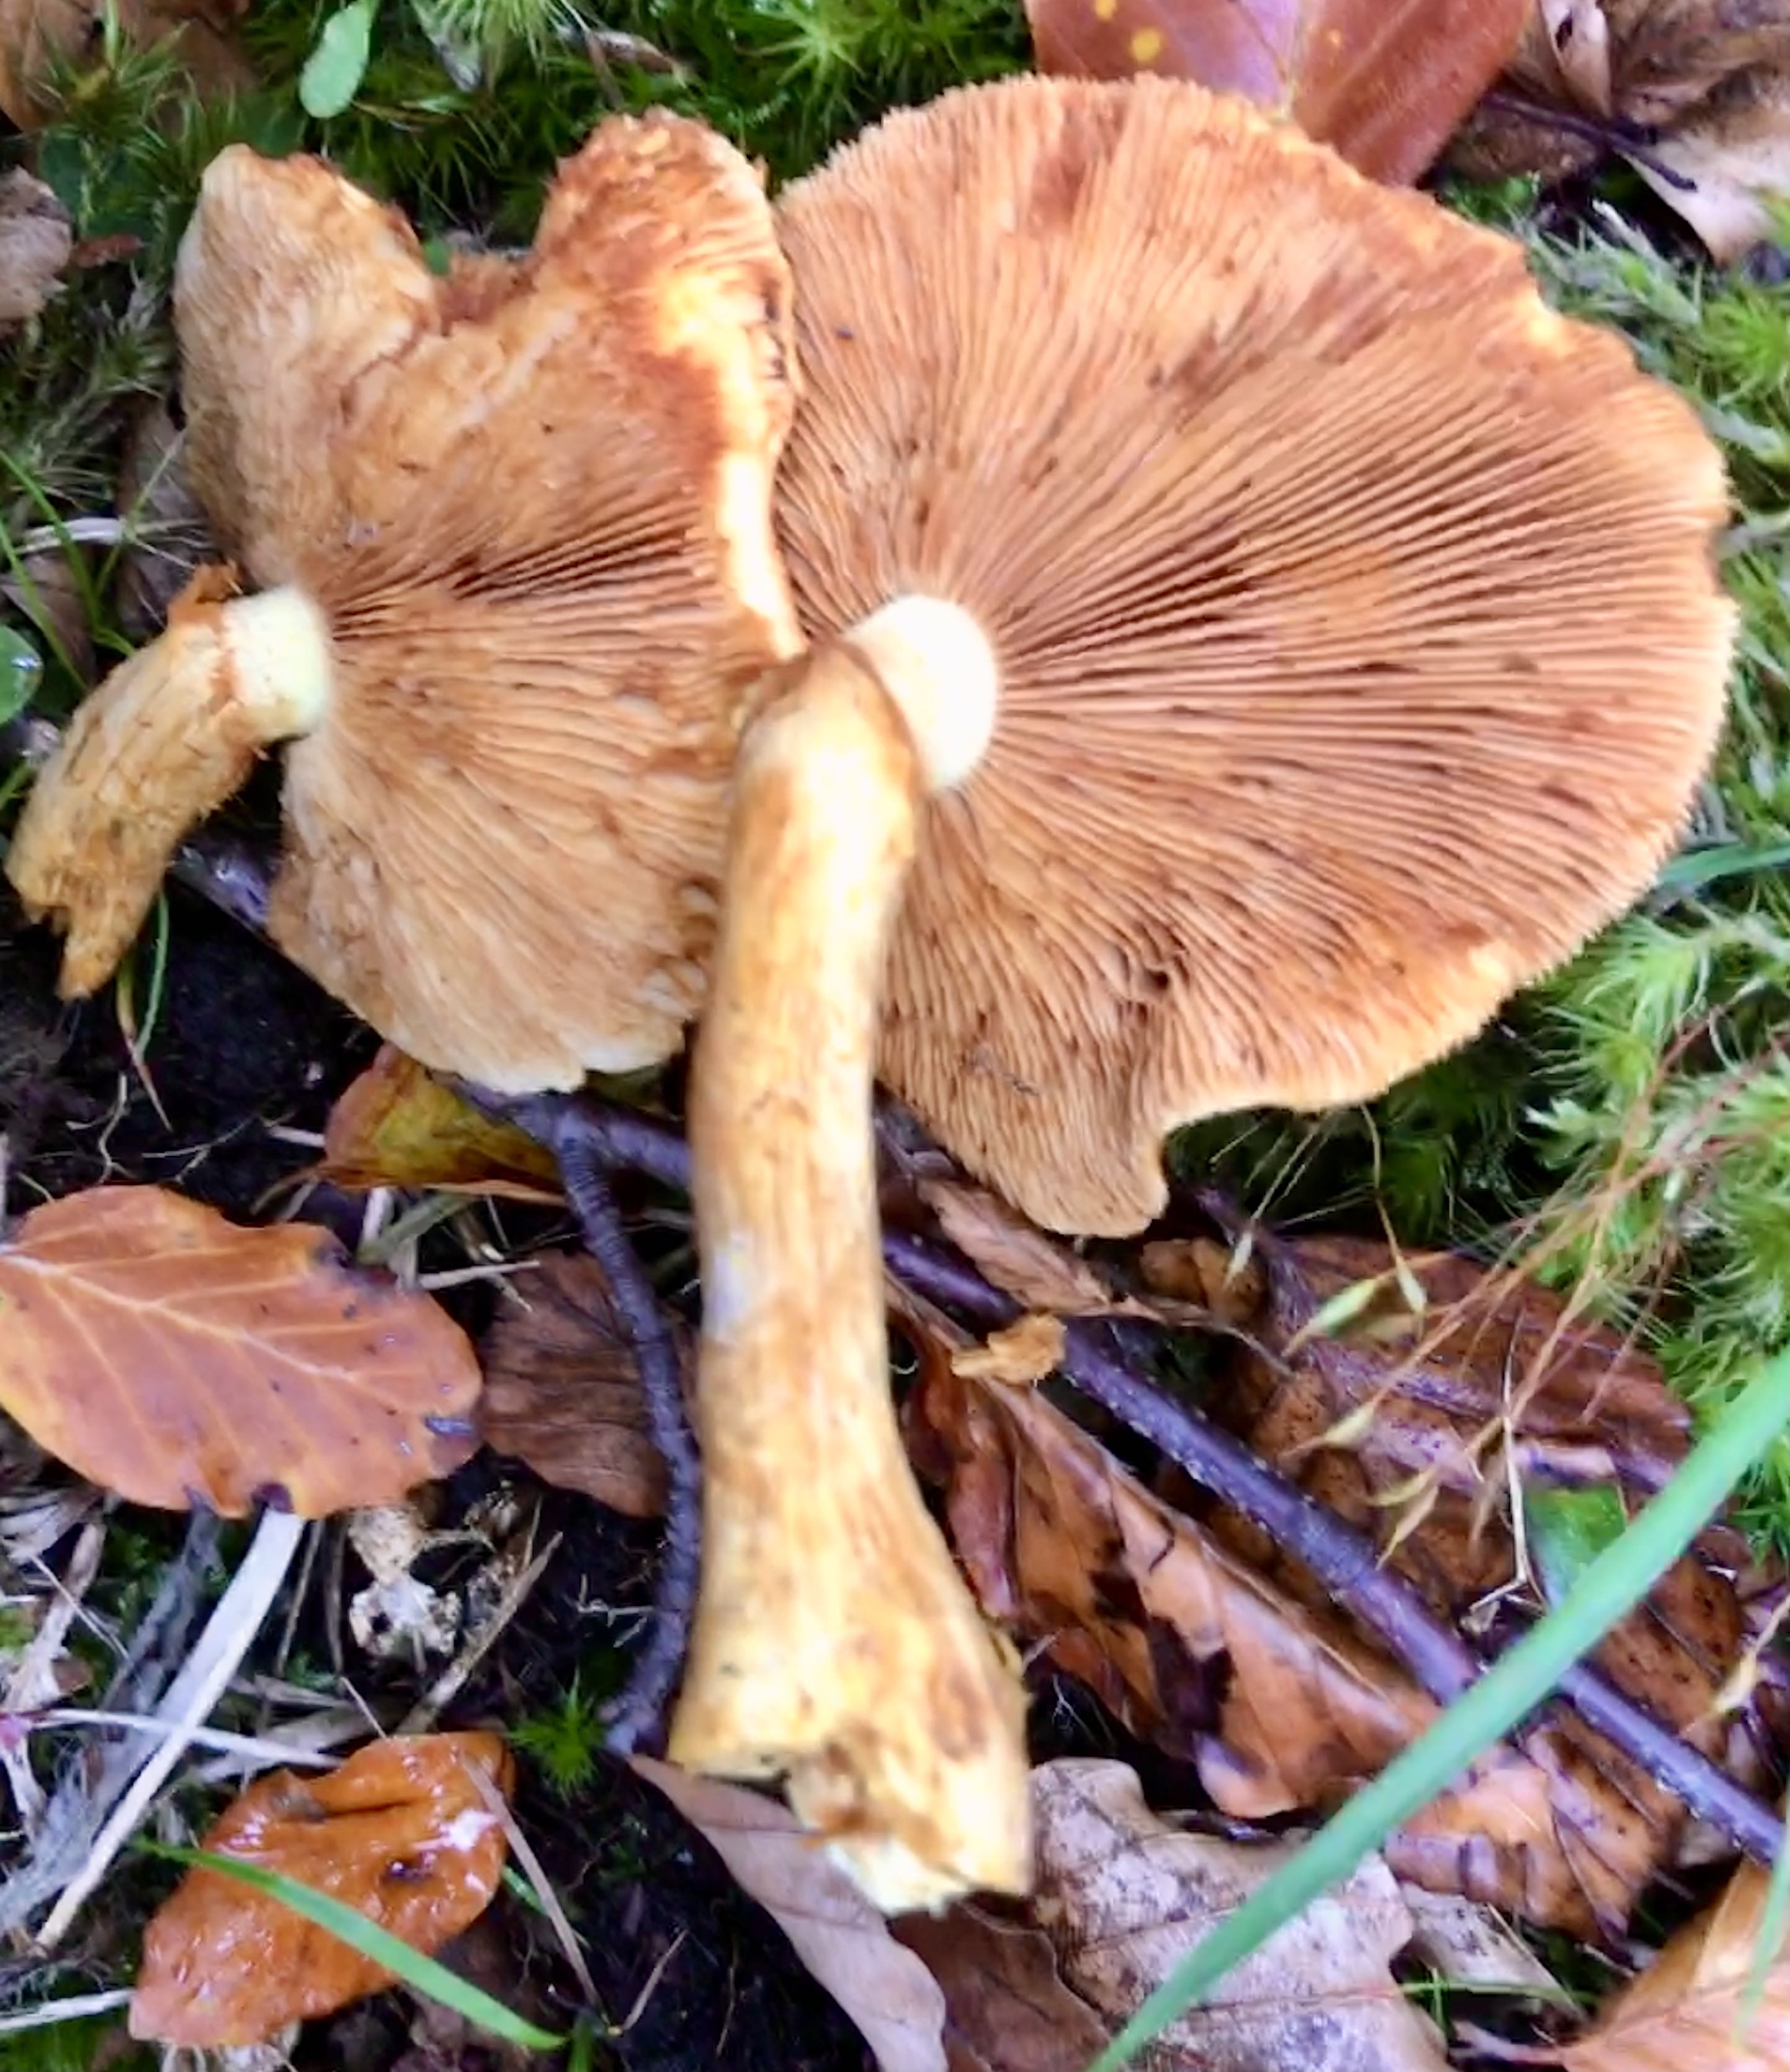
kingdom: Fungi
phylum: Basidiomycota
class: Agaricomycetes
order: Agaricales
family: Hymenogastraceae
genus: Gymnopilus
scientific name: Gymnopilus spectabilis
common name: fibret flammehat
